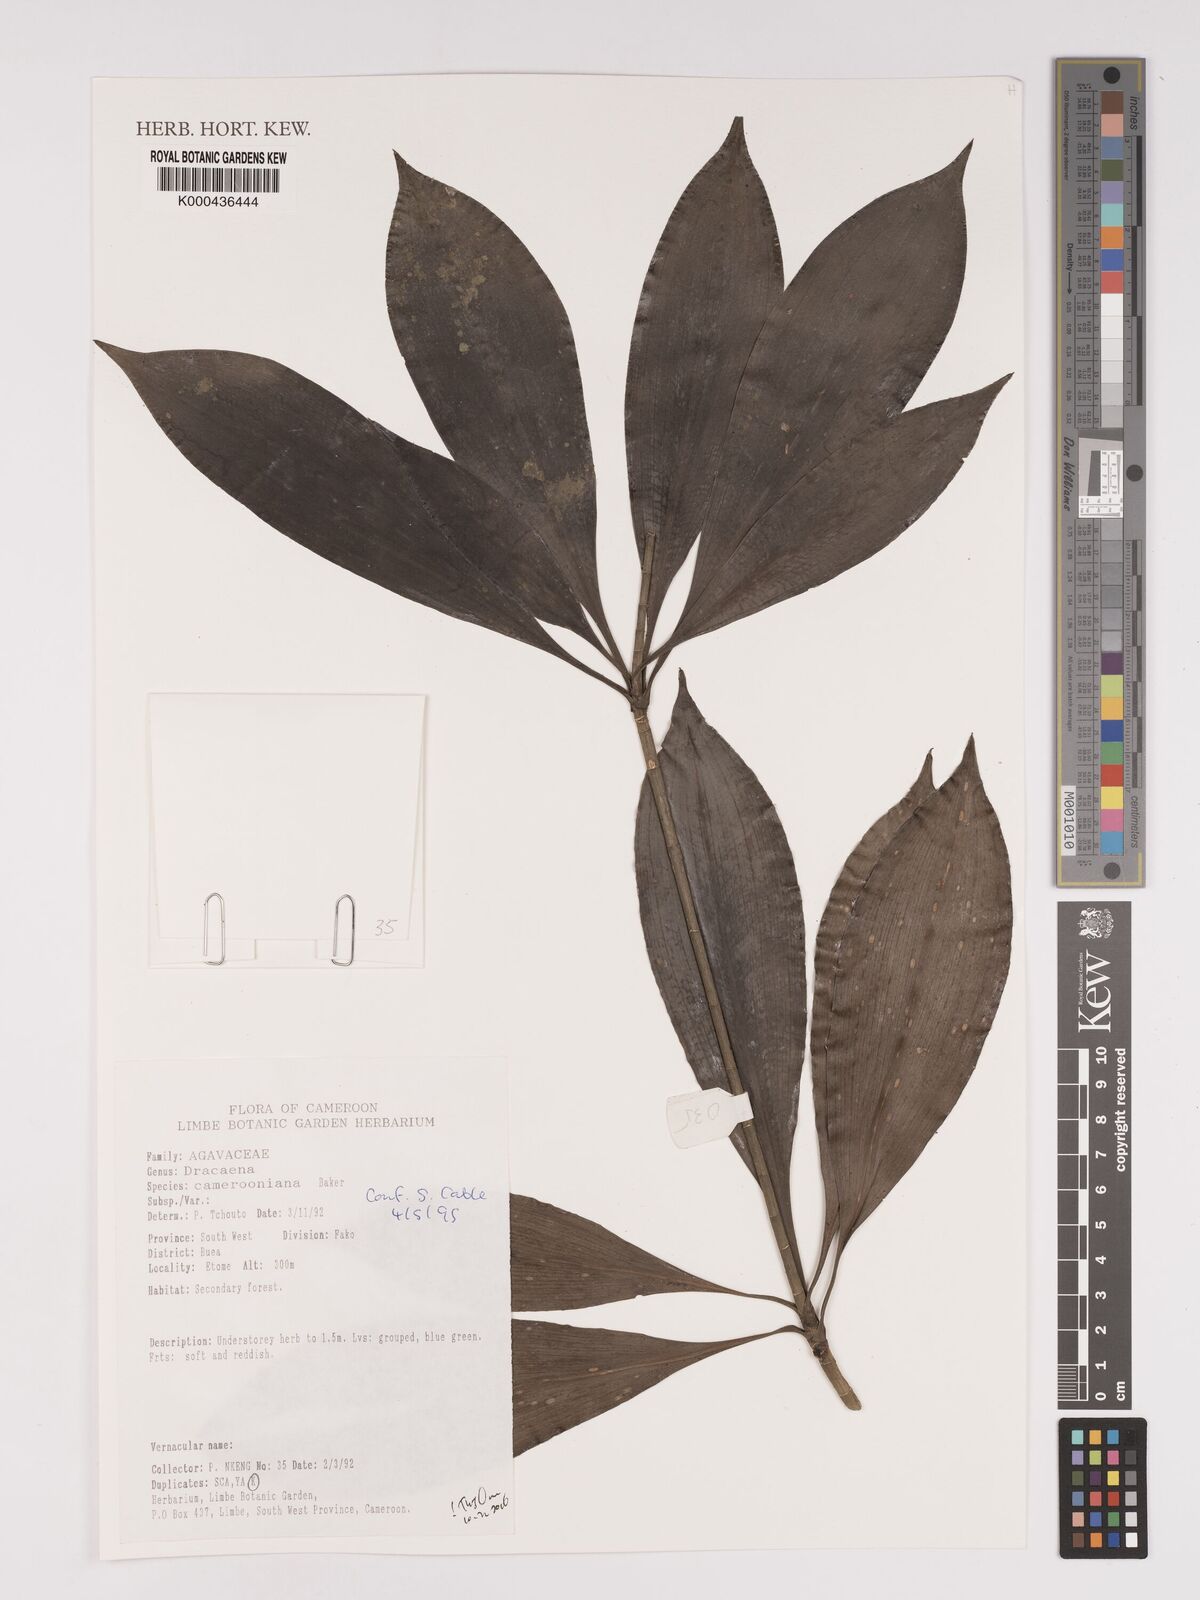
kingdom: Plantae
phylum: Tracheophyta
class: Liliopsida
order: Asparagales
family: Asparagaceae
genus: Dracaena
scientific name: Dracaena camerooniana
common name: Dragon tree
